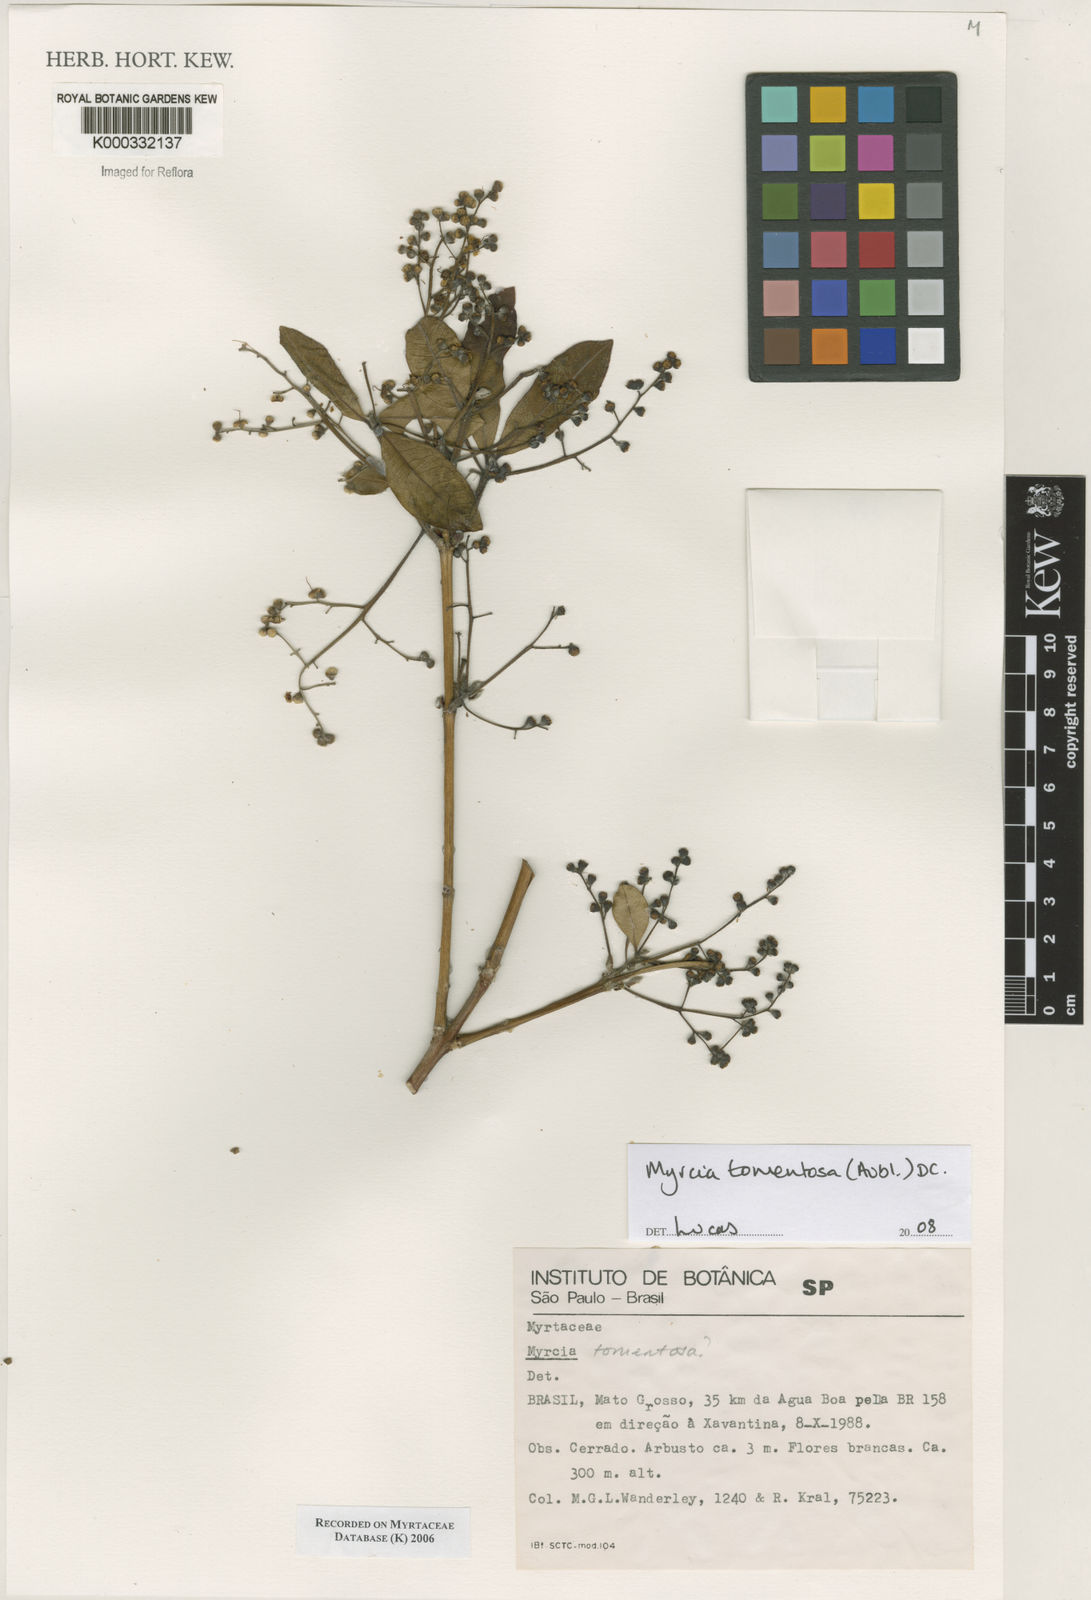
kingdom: Plantae
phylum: Tracheophyta
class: Magnoliopsida
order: Myrtales
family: Myrtaceae
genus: Myrcia
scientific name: Myrcia tomentosa
